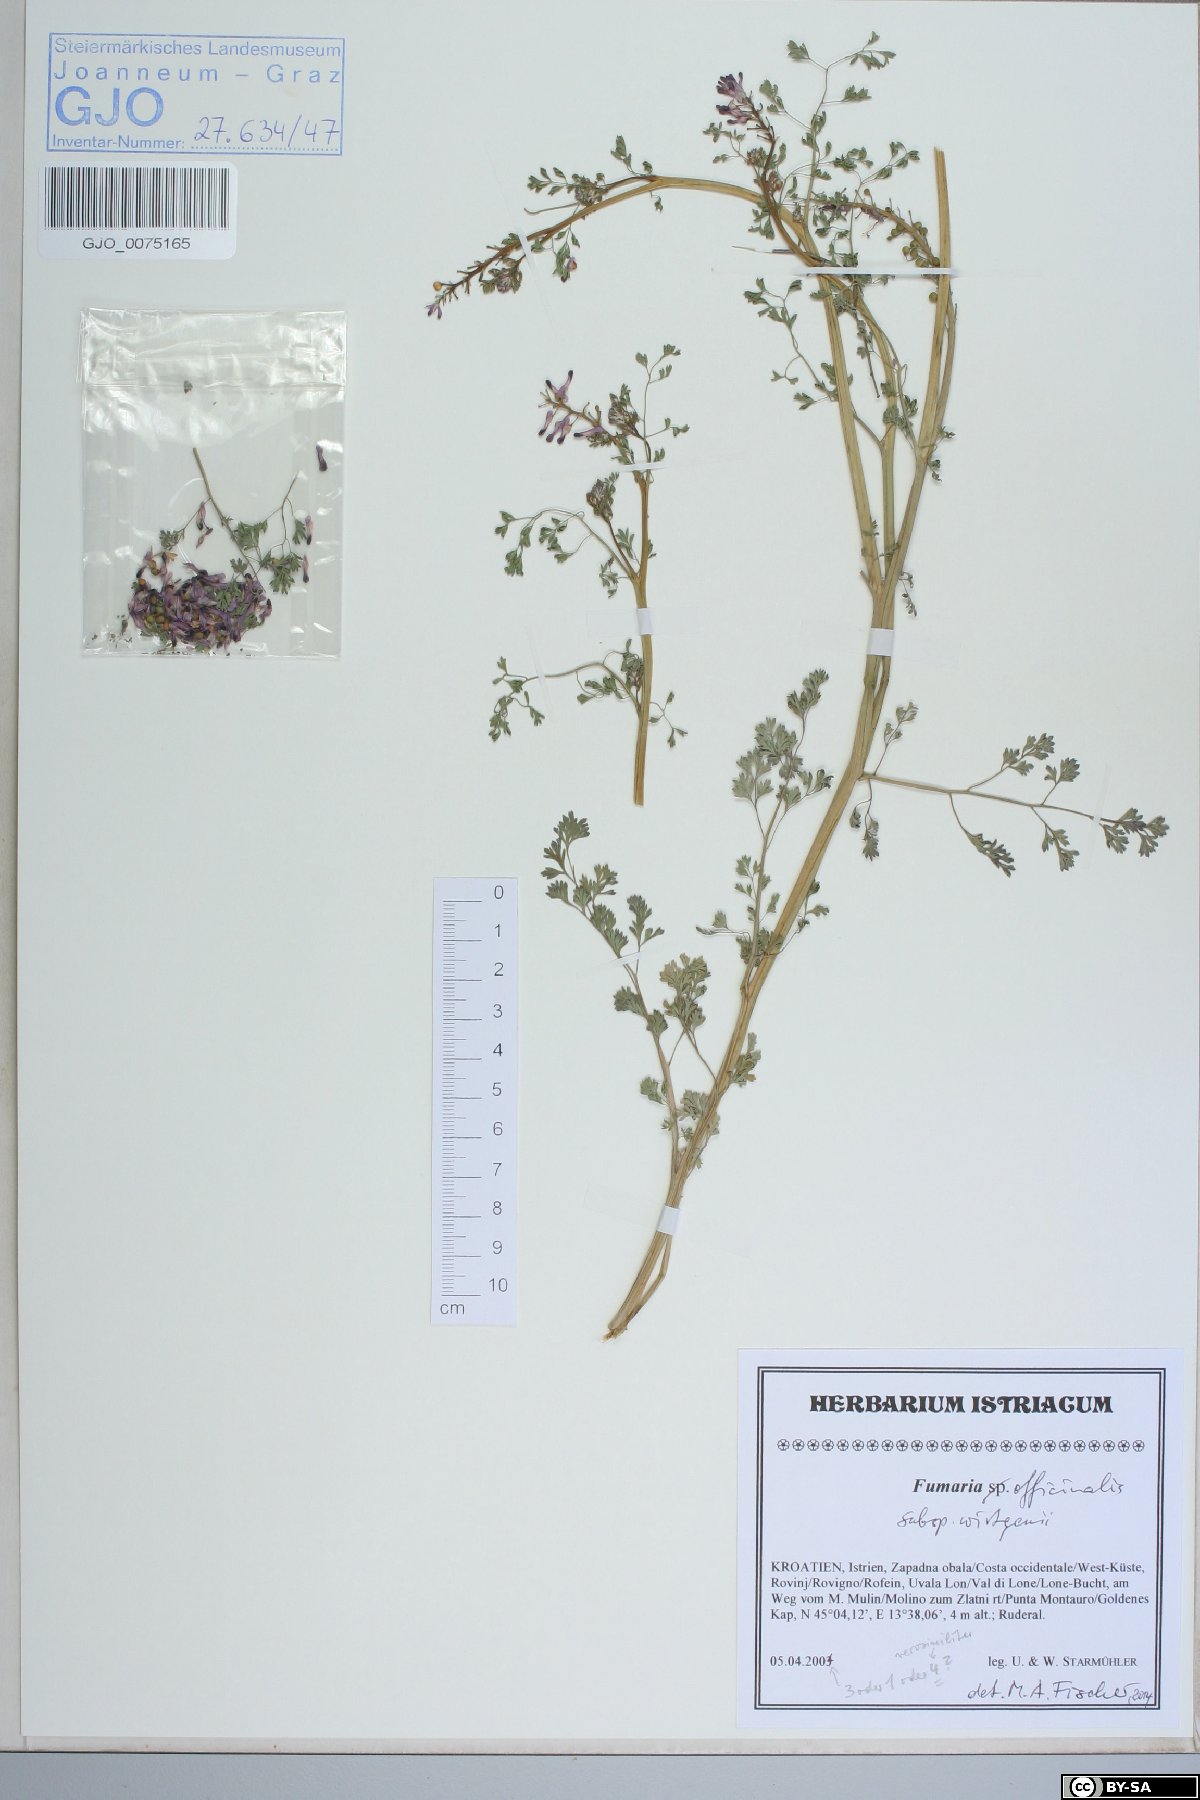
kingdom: Plantae
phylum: Tracheophyta
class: Magnoliopsida
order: Ranunculales
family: Papaveraceae
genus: Fumaria
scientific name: Fumaria wirtgenii
